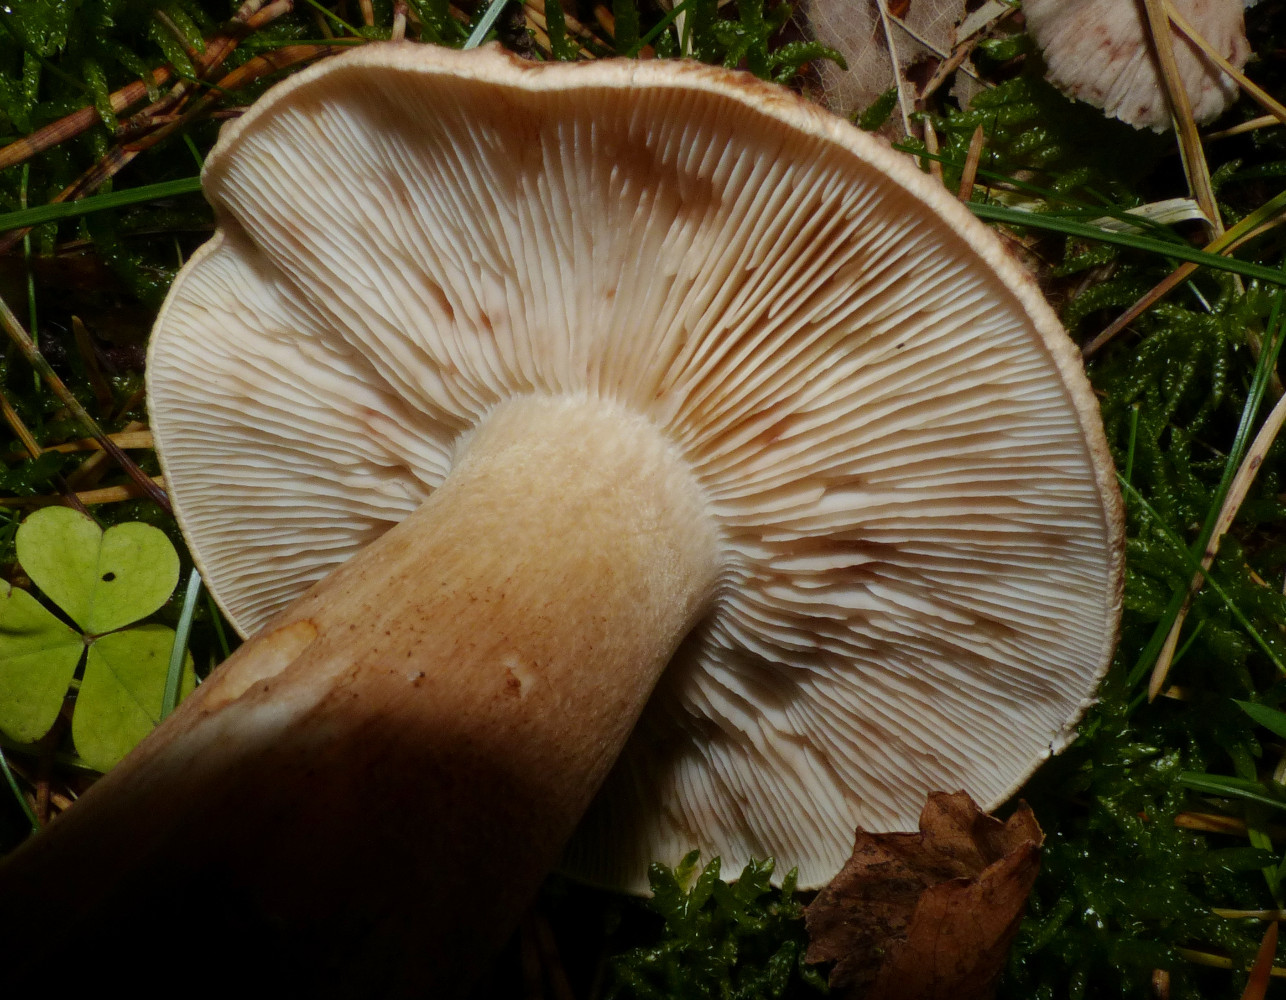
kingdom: Fungi
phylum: Basidiomycota
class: Agaricomycetes
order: Agaricales
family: Tricholomataceae
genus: Tricholoma
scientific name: Tricholoma imbricatum
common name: skællet ridderhat
